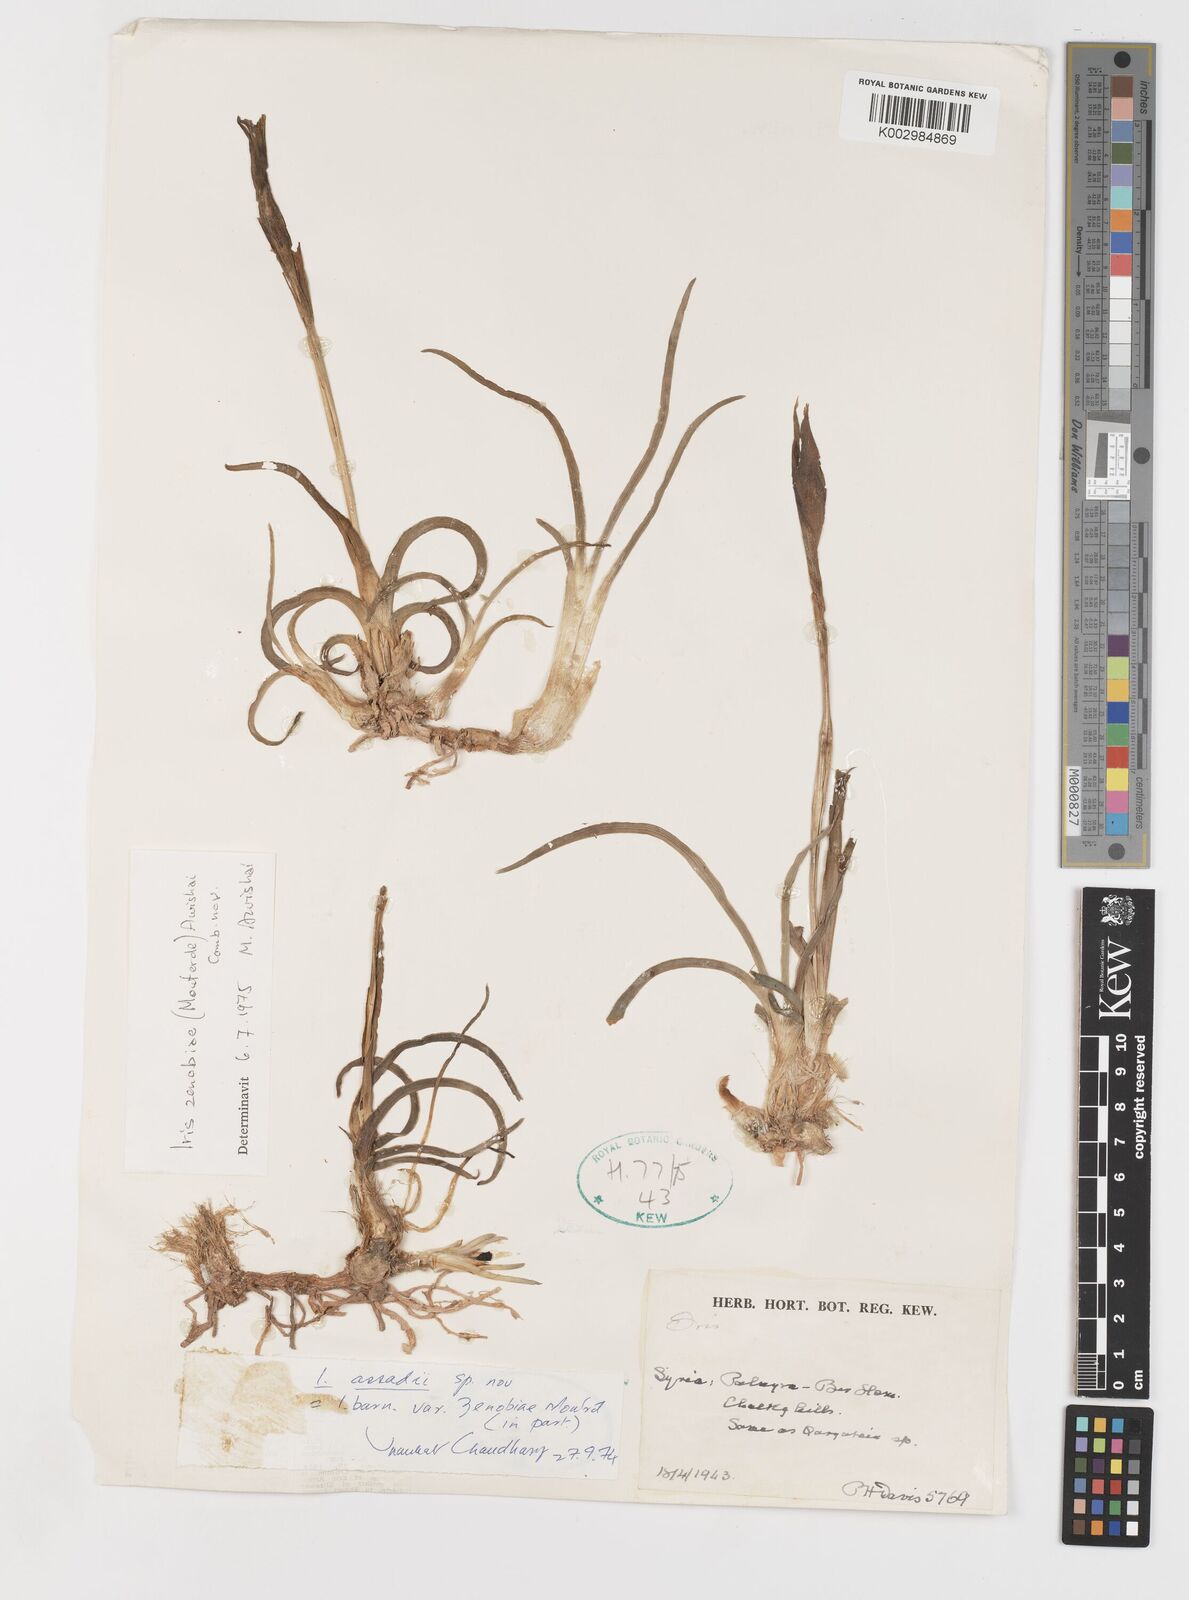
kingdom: Plantae
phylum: Tracheophyta
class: Liliopsida
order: Asparagales
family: Iridaceae
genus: Iris
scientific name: Iris assadiana
